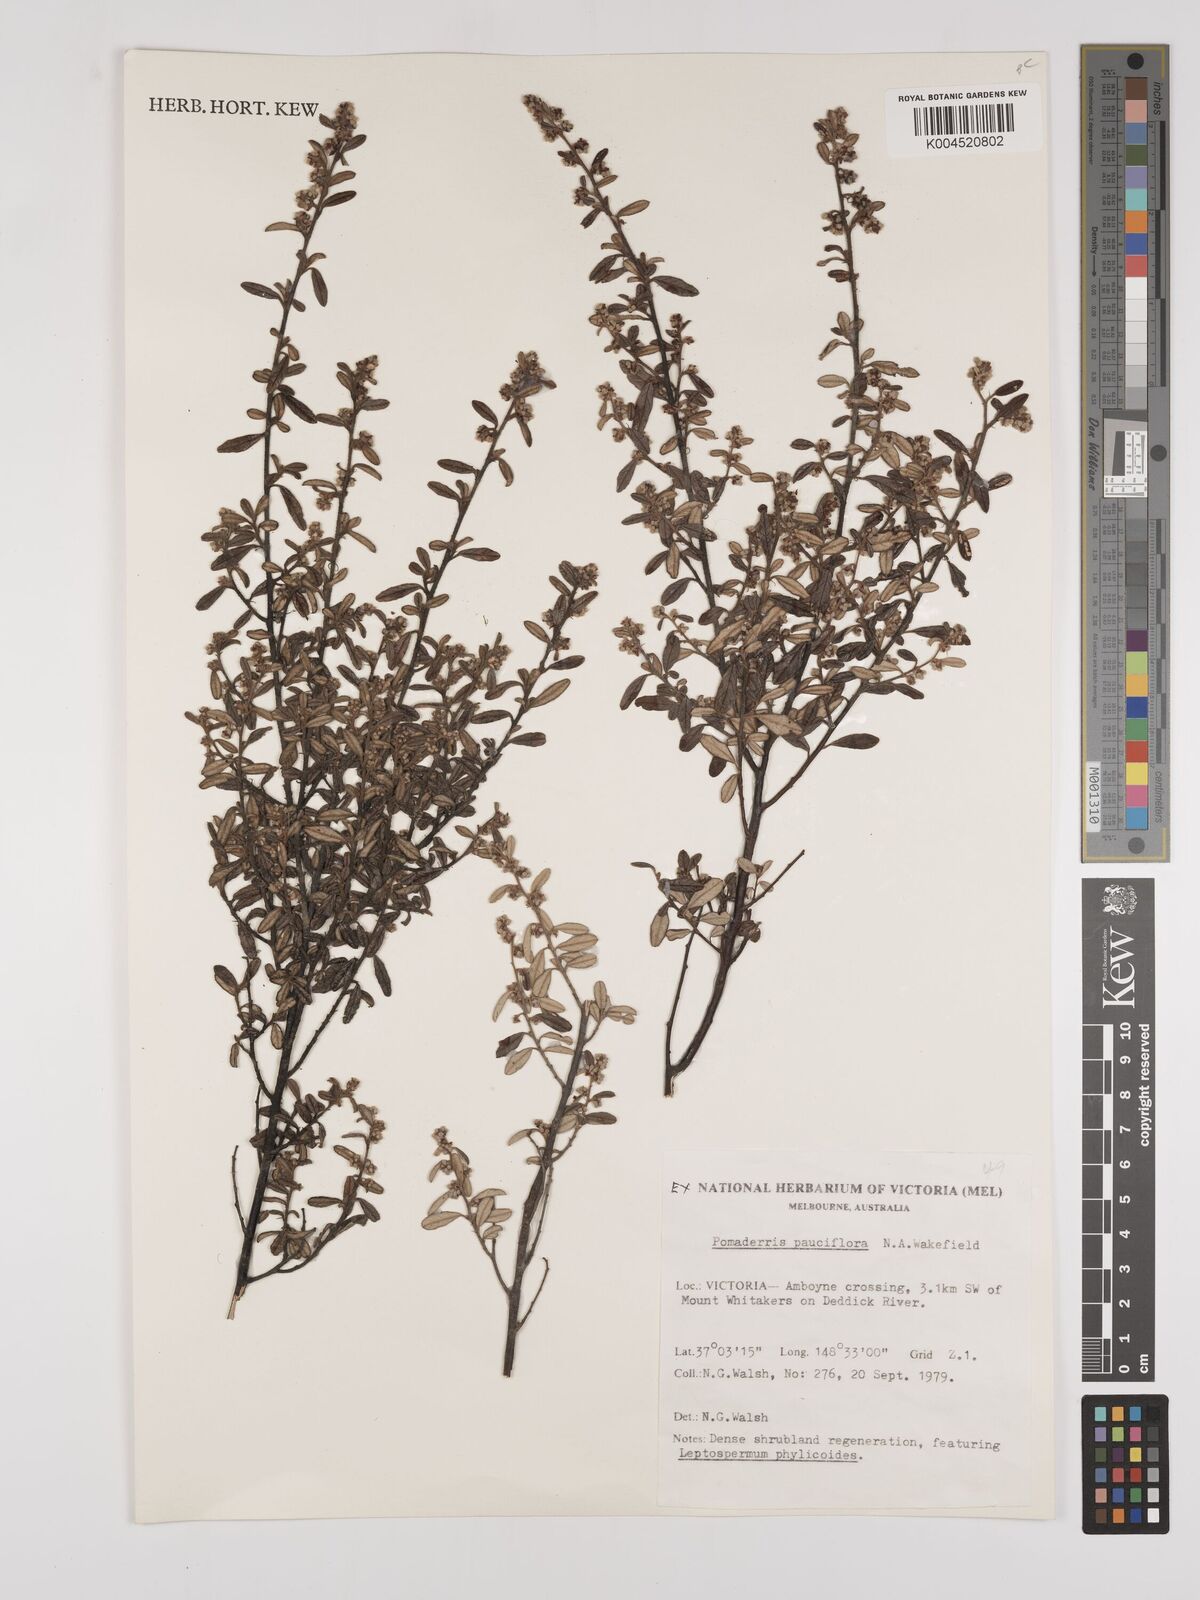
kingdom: Plantae
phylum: Tracheophyta
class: Magnoliopsida
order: Rosales
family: Rhamnaceae
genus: Pomaderris
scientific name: Pomaderris pauciflora
